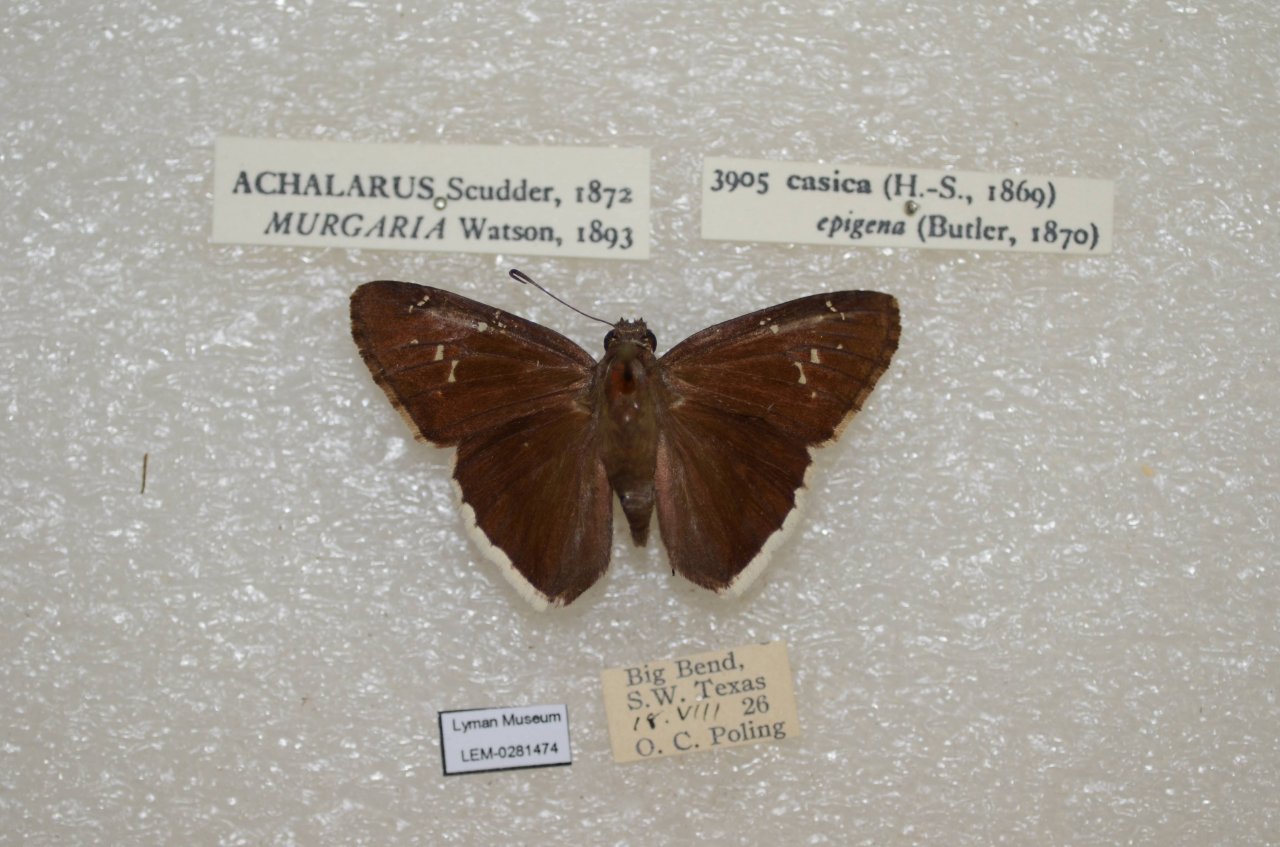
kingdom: Animalia
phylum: Arthropoda
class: Insecta
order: Lepidoptera
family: Hesperiidae
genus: Achalarus
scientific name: Achalarus casica
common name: Desert Cloudywing
